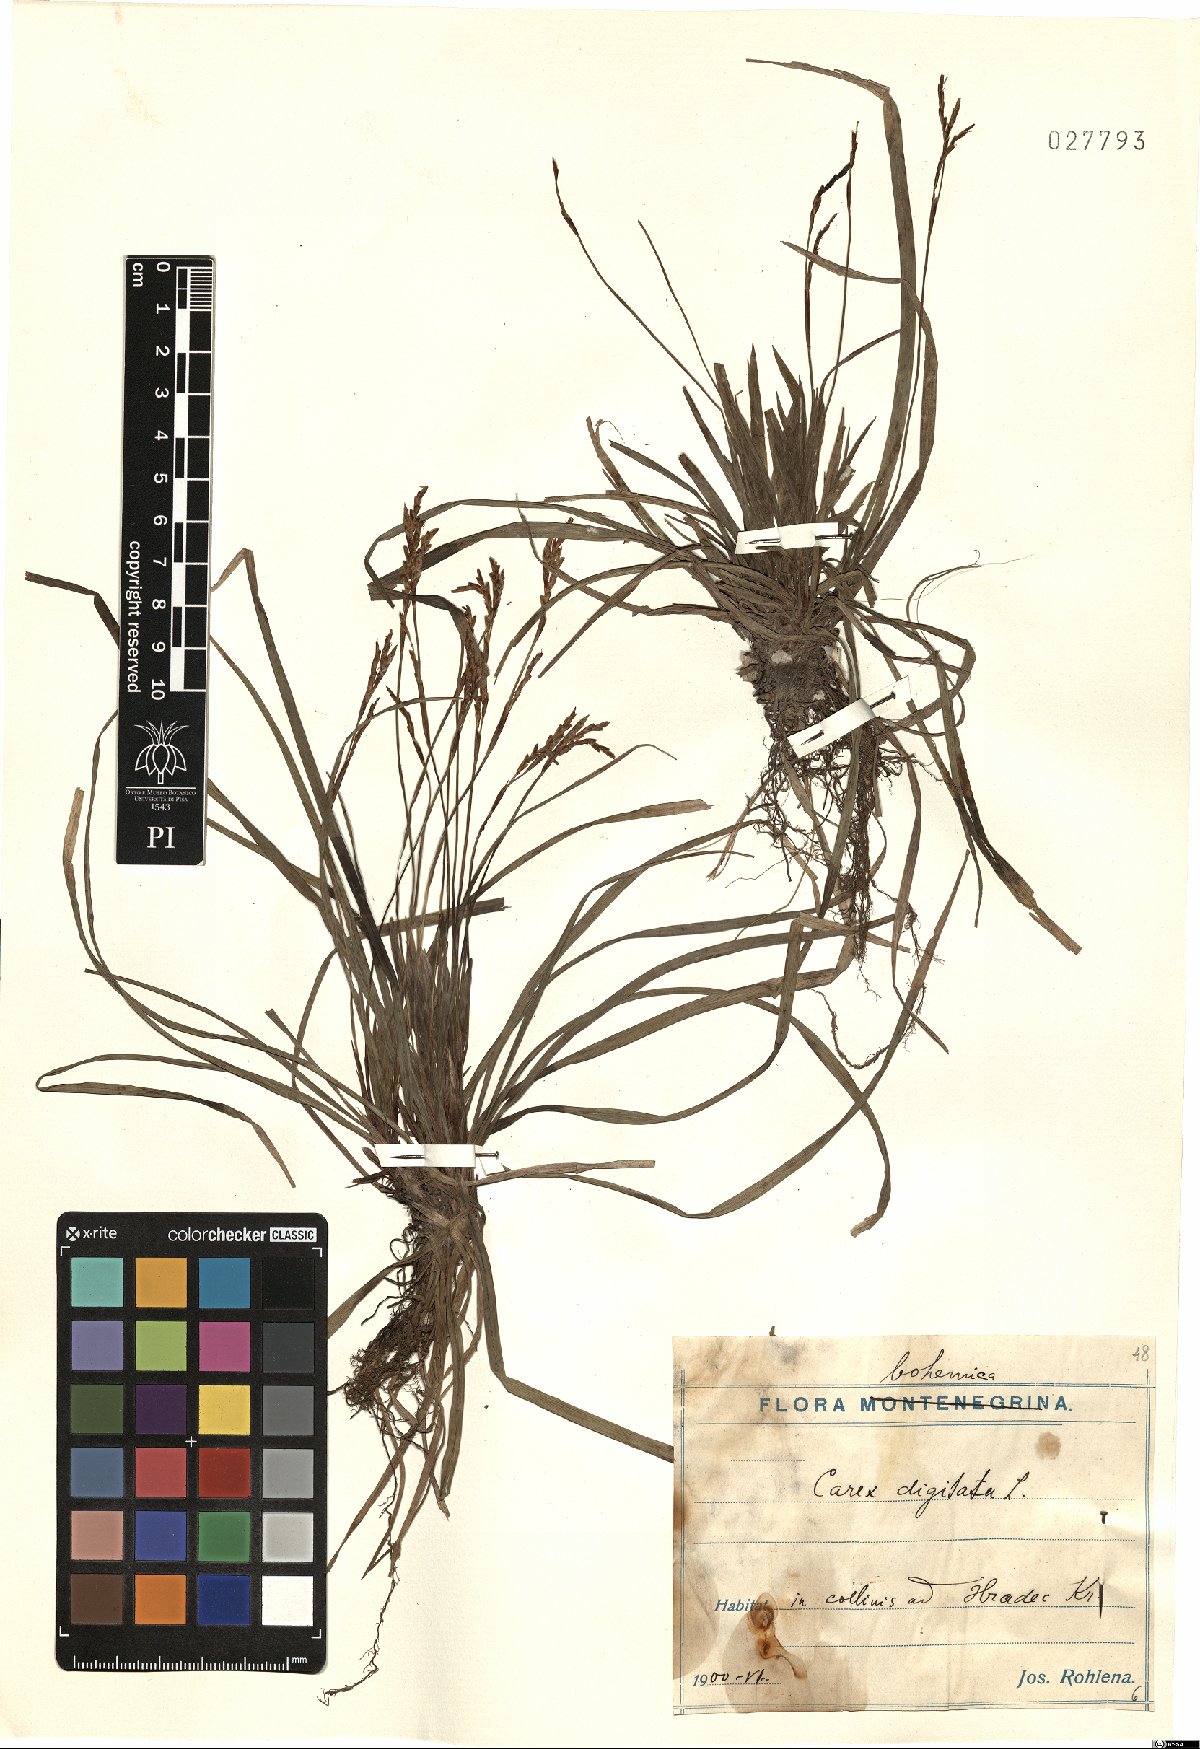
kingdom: Plantae
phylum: Tracheophyta
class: Liliopsida
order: Poales
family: Cyperaceae
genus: Carex
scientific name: Carex digitata
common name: Fingered sedge
